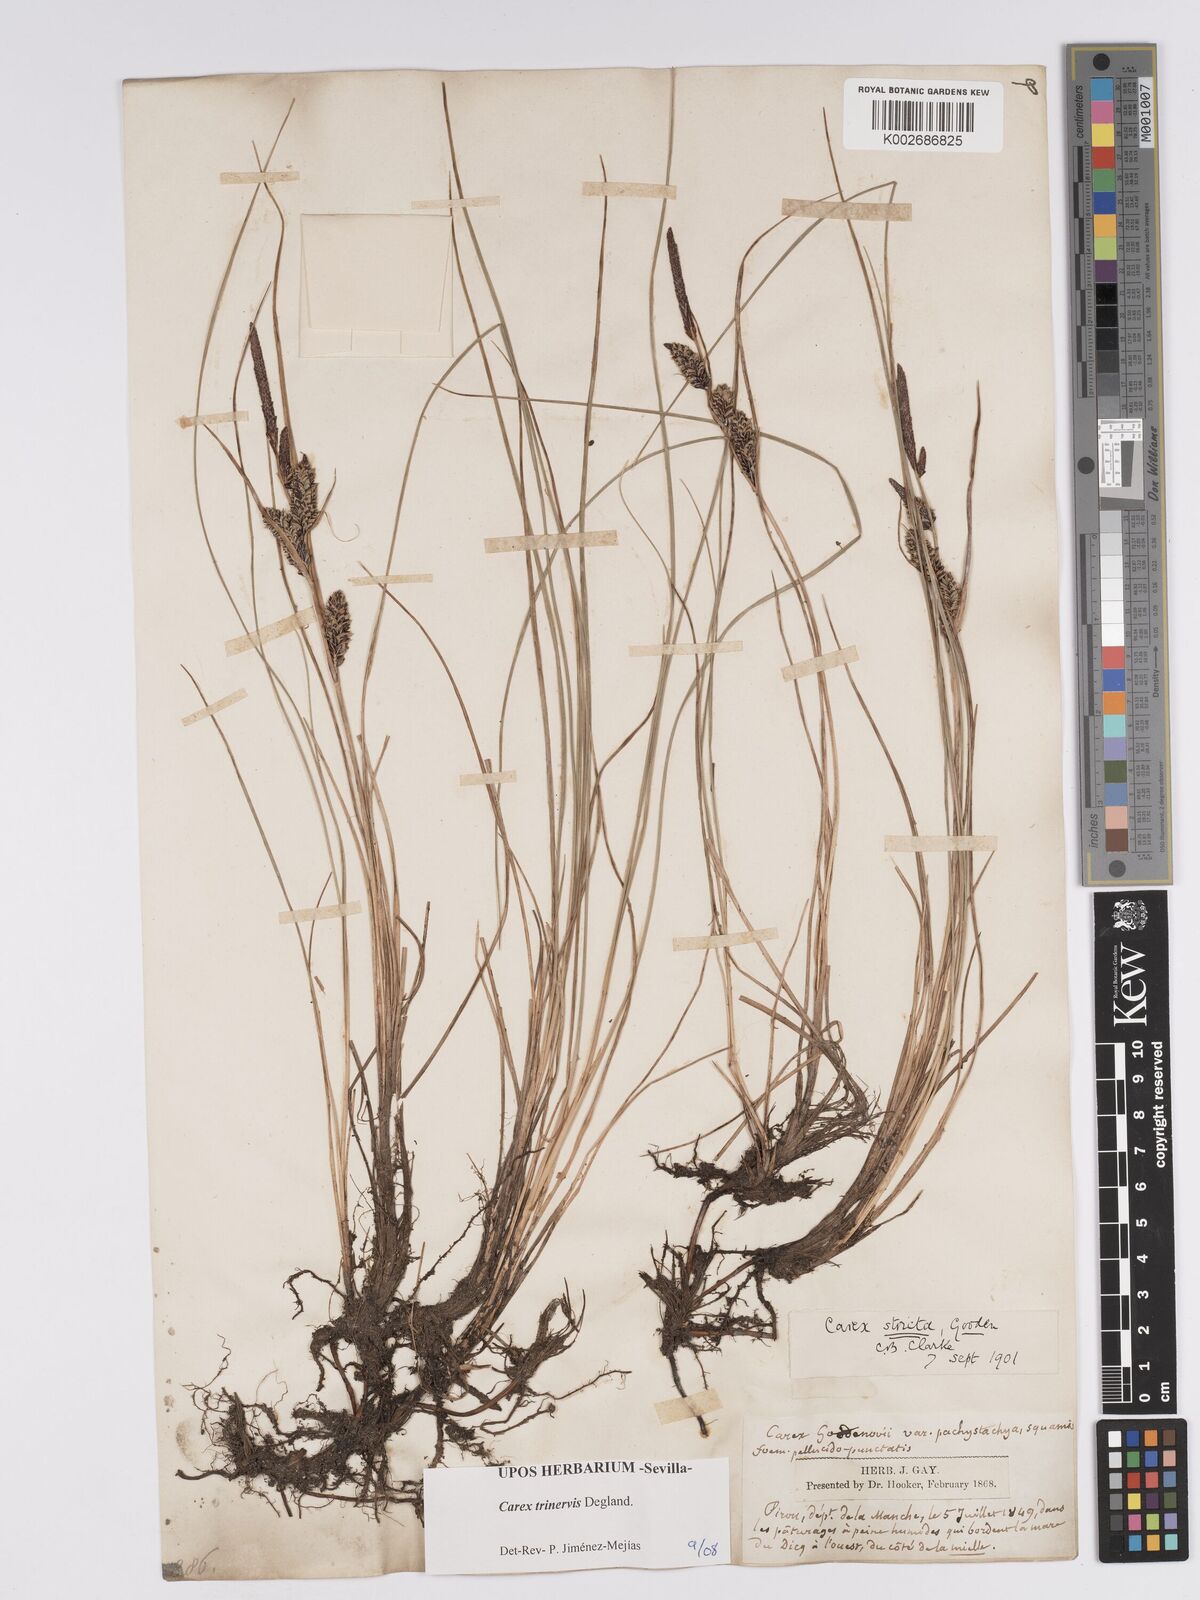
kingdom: Plantae
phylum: Tracheophyta
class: Liliopsida
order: Poales
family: Cyperaceae
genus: Carex
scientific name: Carex trinervis
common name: Three-nerved sedge
